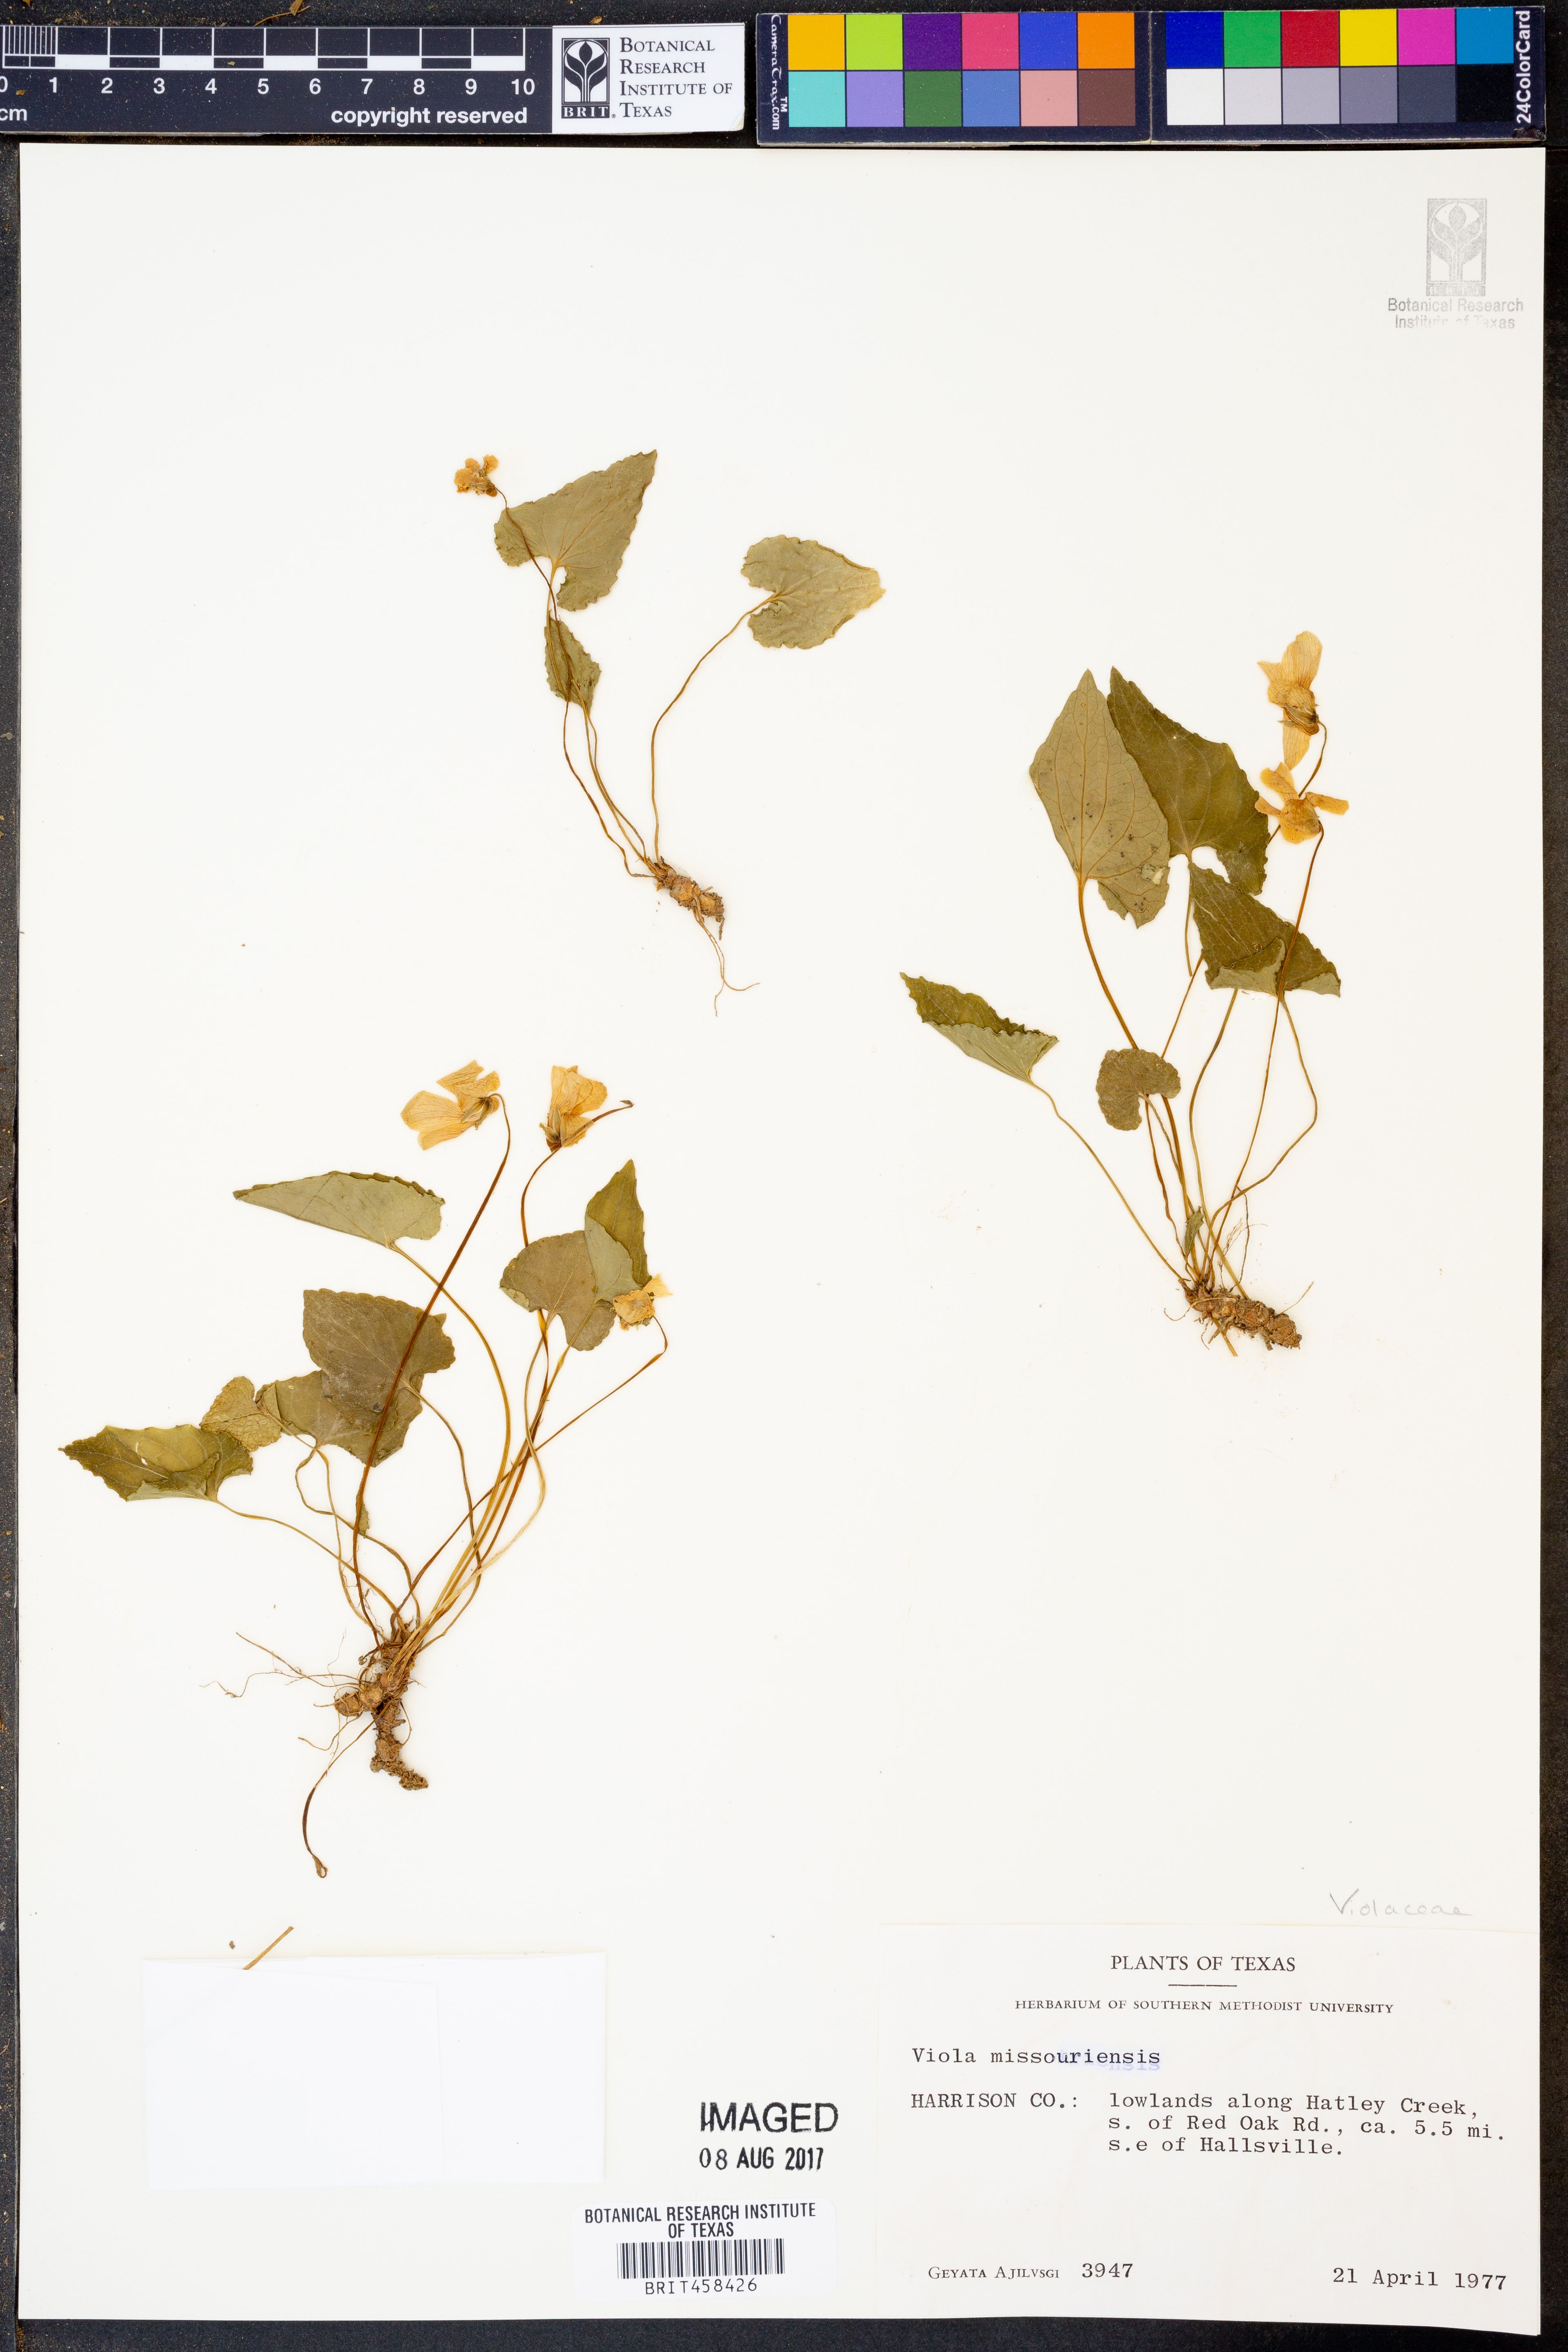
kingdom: Plantae
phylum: Tracheophyta
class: Magnoliopsida
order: Malpighiales
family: Violaceae
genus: Viola
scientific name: Viola missouriensis
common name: Missouri violet
